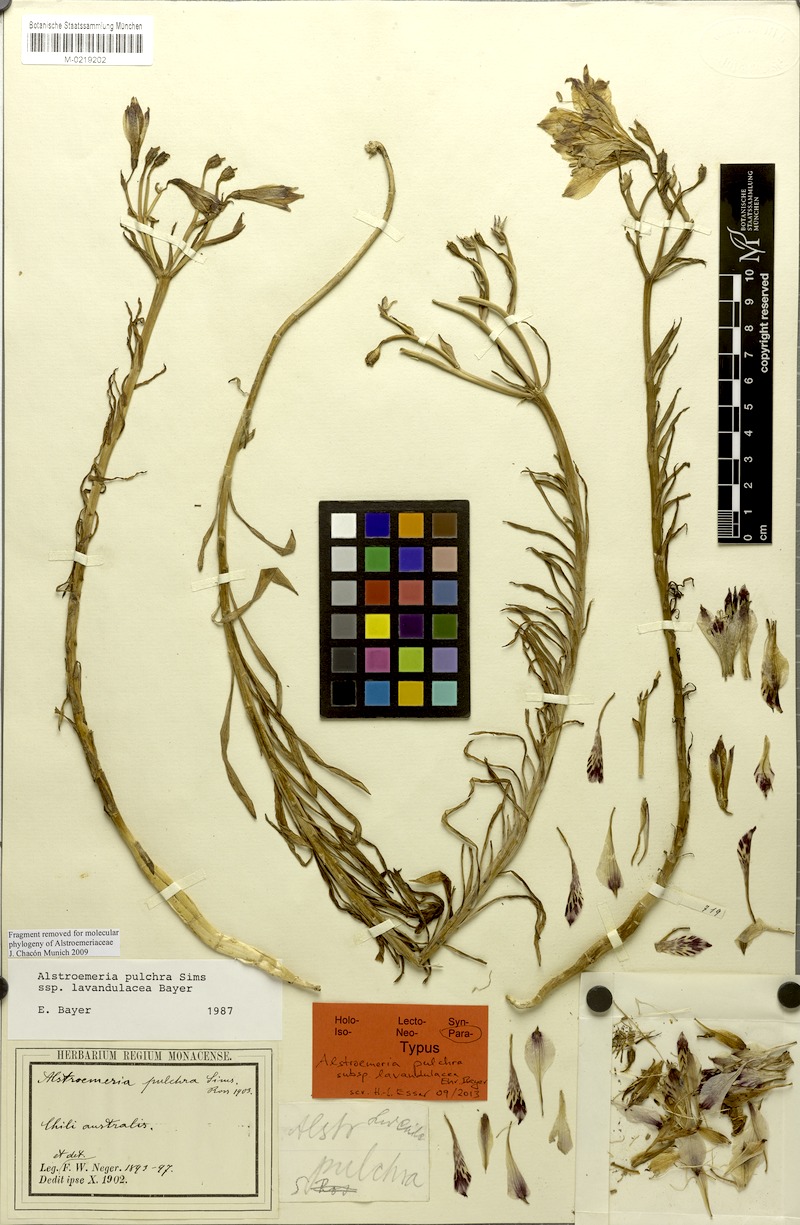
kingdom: Plantae
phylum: Tracheophyta
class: Liliopsida
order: Liliales
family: Alstroemeriaceae
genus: Alstroemeria
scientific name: Alstroemeria pulchra
